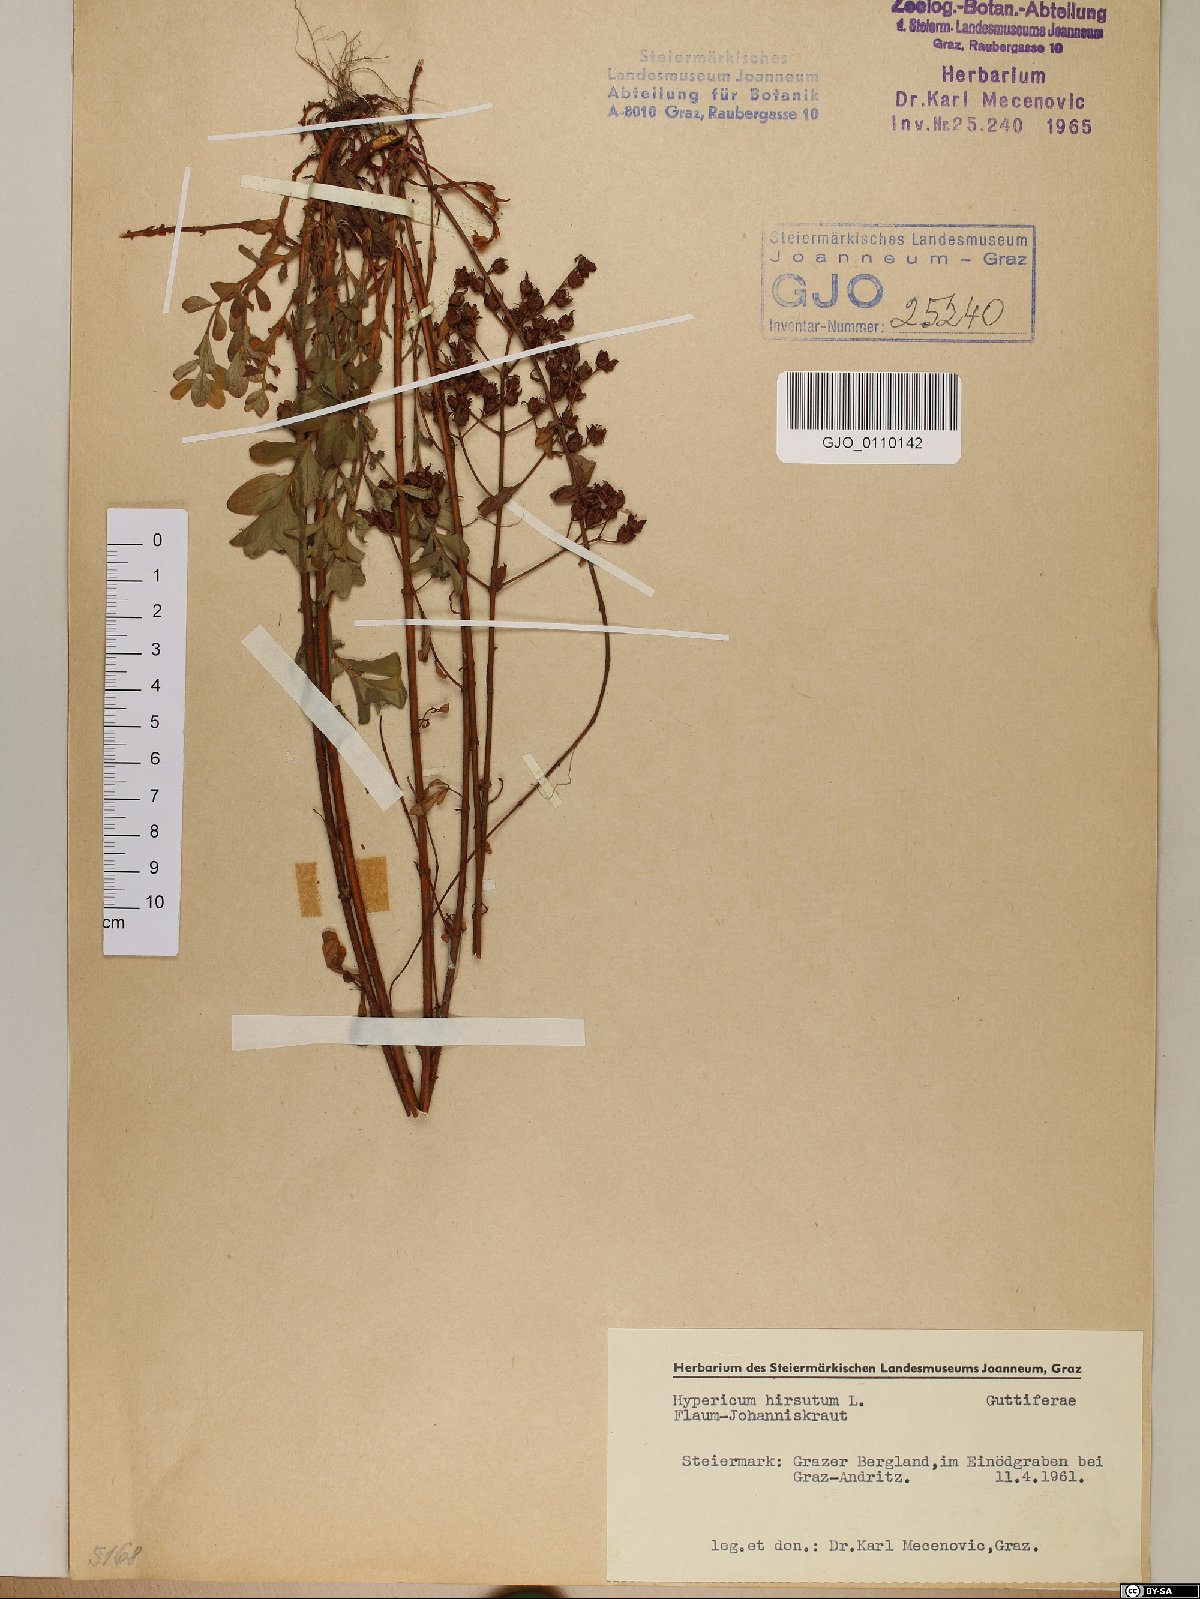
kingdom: Plantae
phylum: Tracheophyta
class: Magnoliopsida
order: Malpighiales
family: Hypericaceae
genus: Hypericum
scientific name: Hypericum hirsutum
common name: Hairy st. john's-wort
